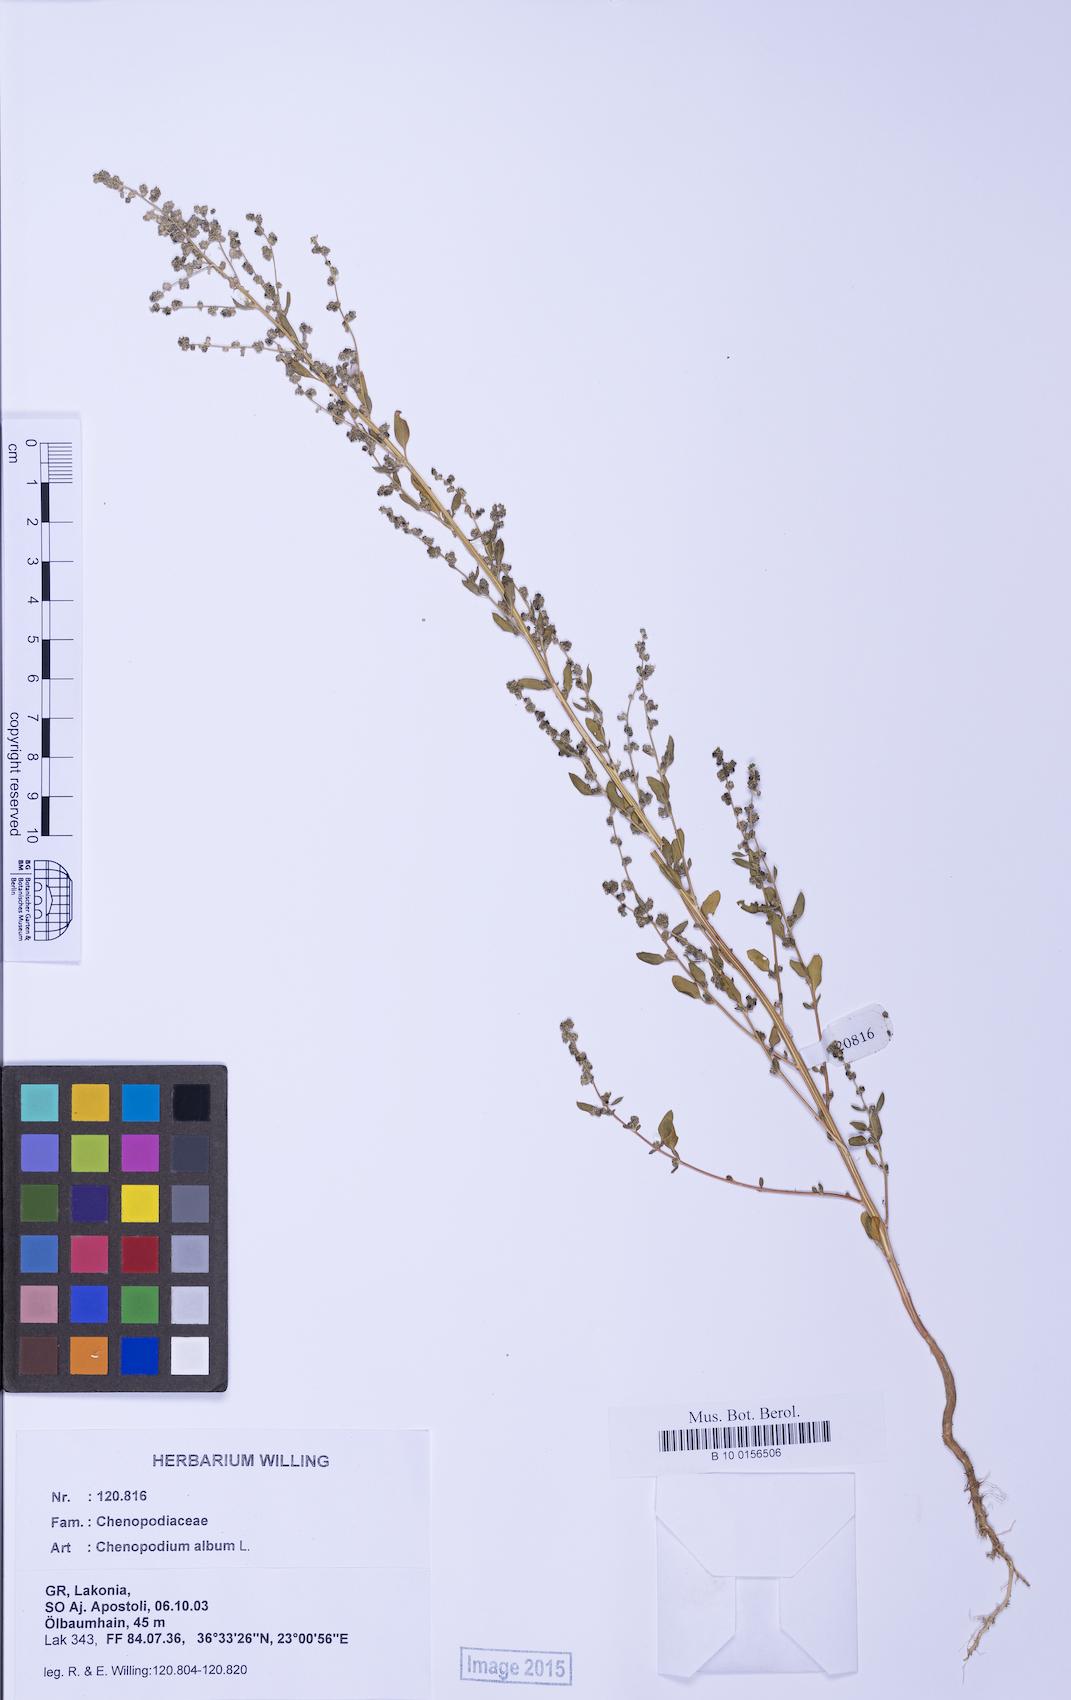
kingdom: Plantae
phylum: Tracheophyta
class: Magnoliopsida
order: Caryophyllales
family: Amaranthaceae
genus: Chenopodium
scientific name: Chenopodium album
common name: Fat-hen
